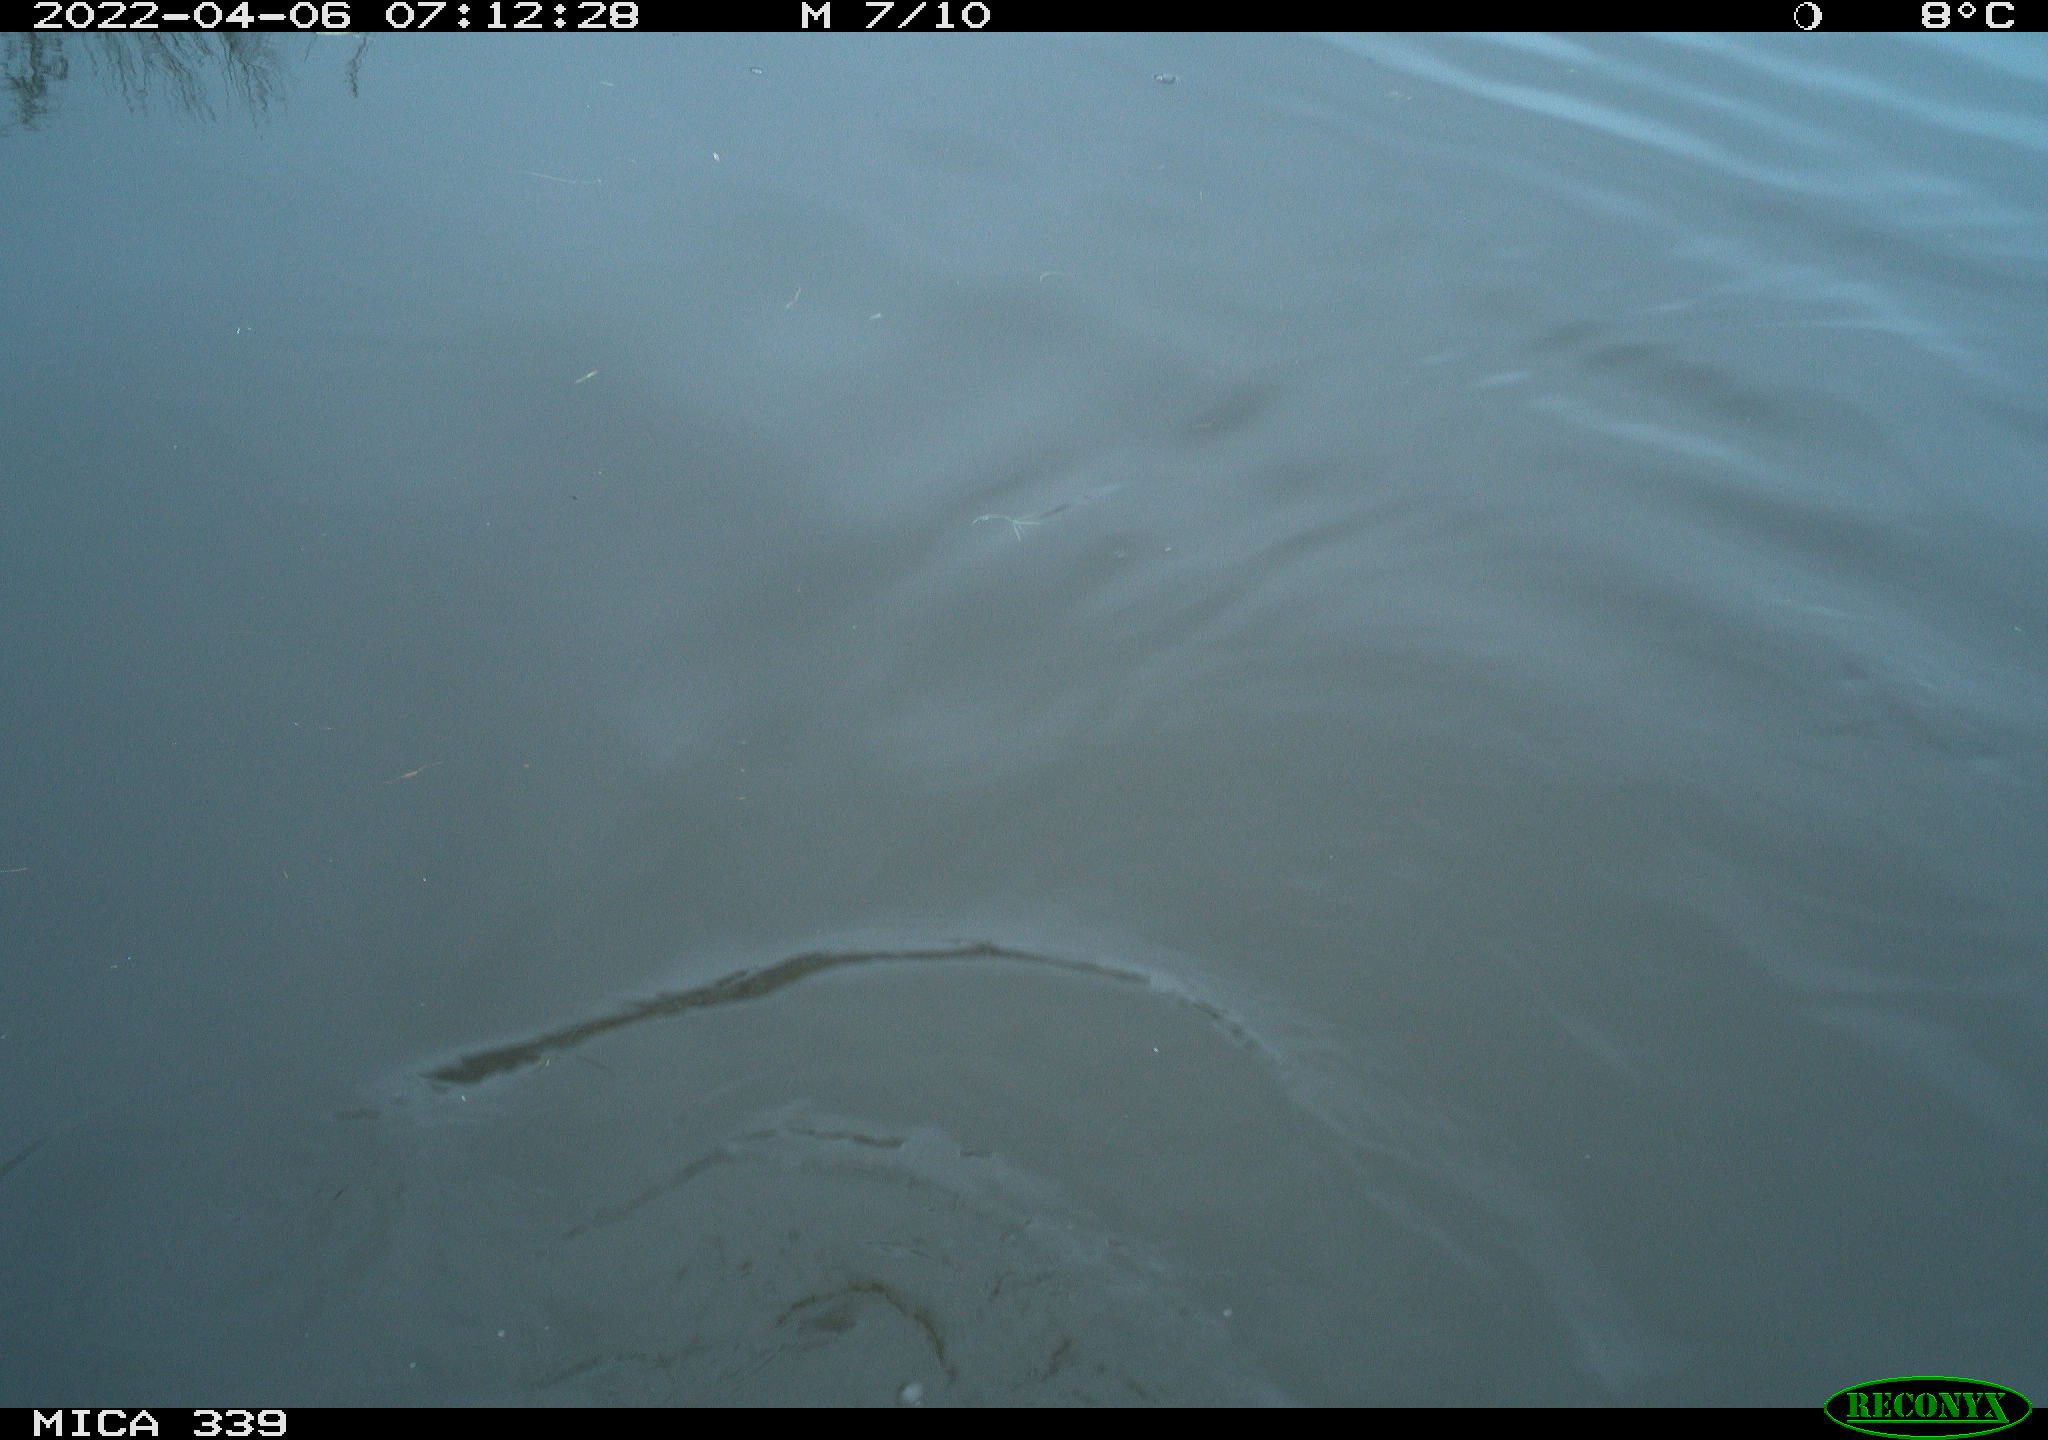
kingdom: Animalia
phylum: Chordata
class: Aves
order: Suliformes
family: Phalacrocoracidae
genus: Phalacrocorax
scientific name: Phalacrocorax carbo
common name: Great cormorant
